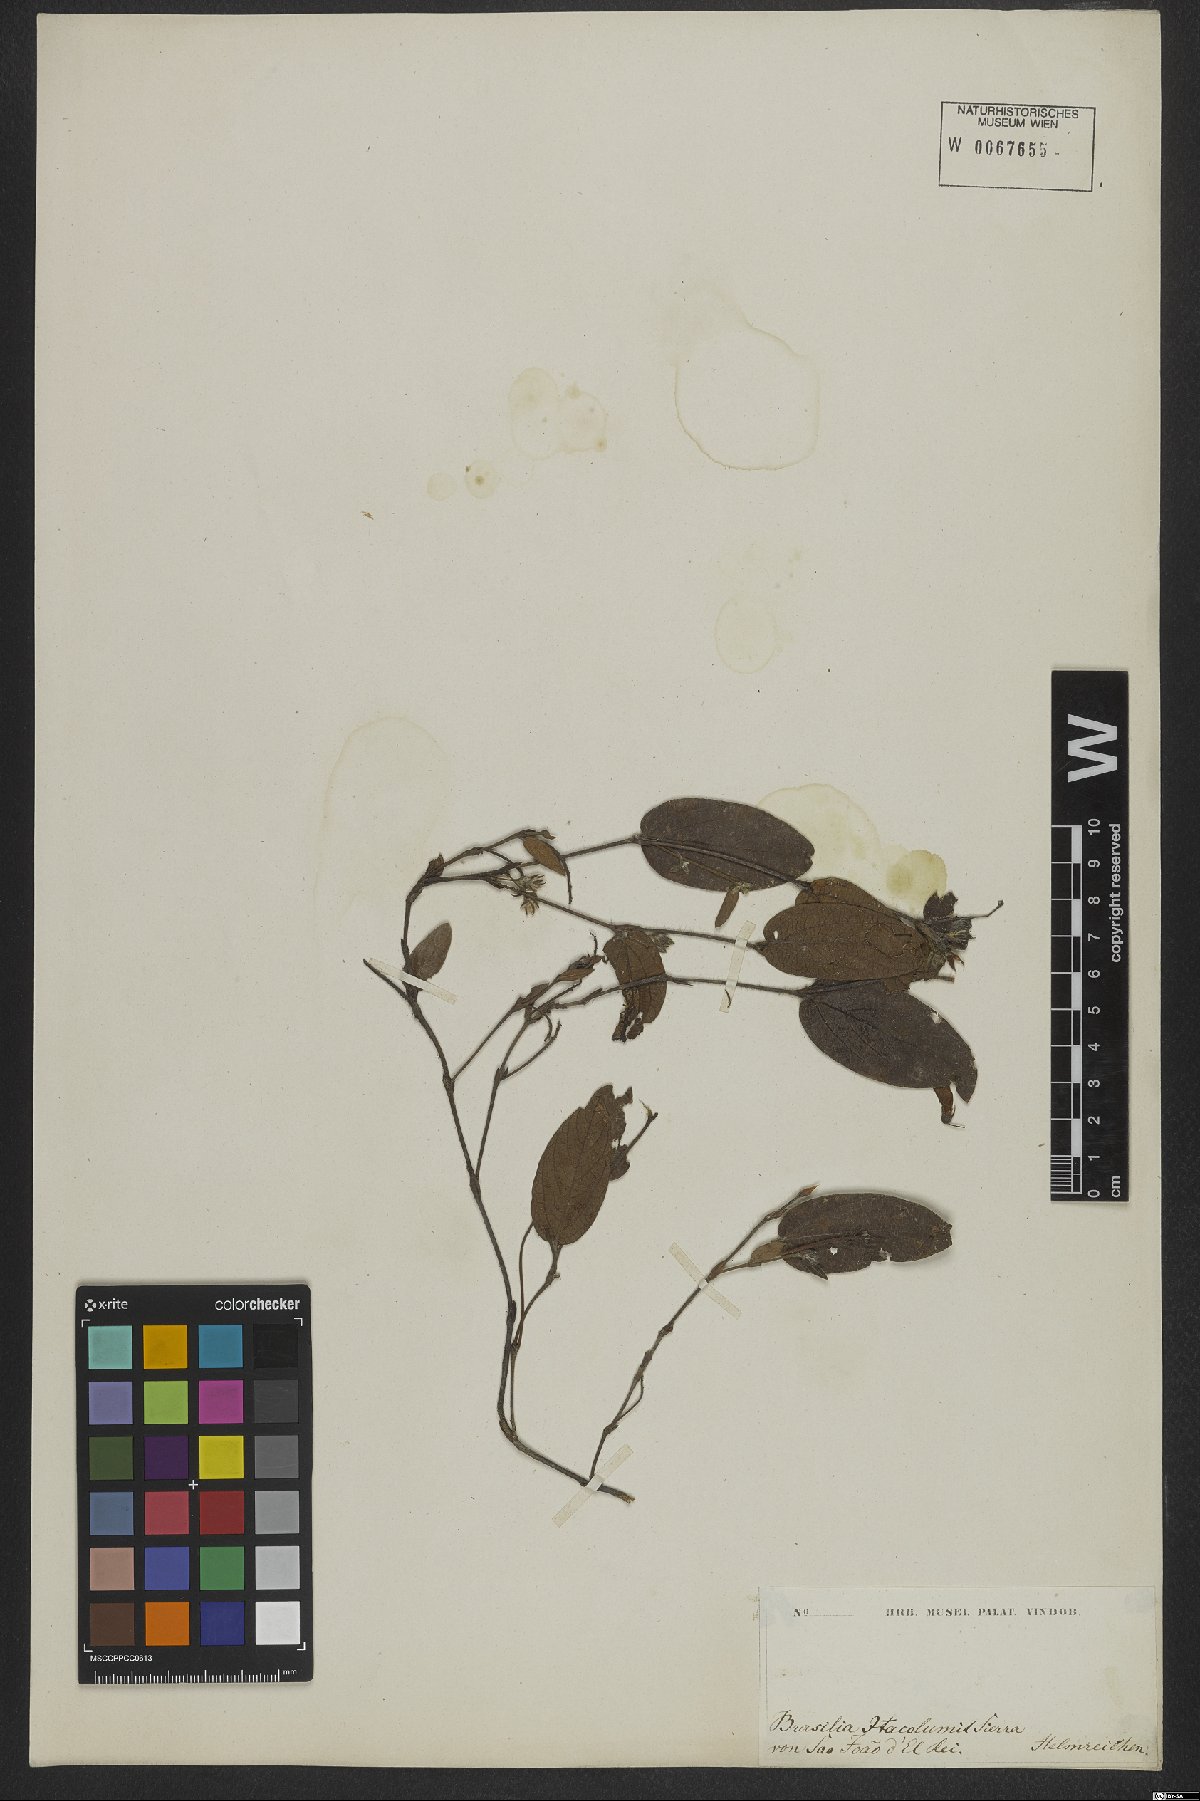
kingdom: Plantae
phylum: Tracheophyta
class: Magnoliopsida
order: Fabales
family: Fabaceae
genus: Eriosema
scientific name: Eriosema heterophyllum
